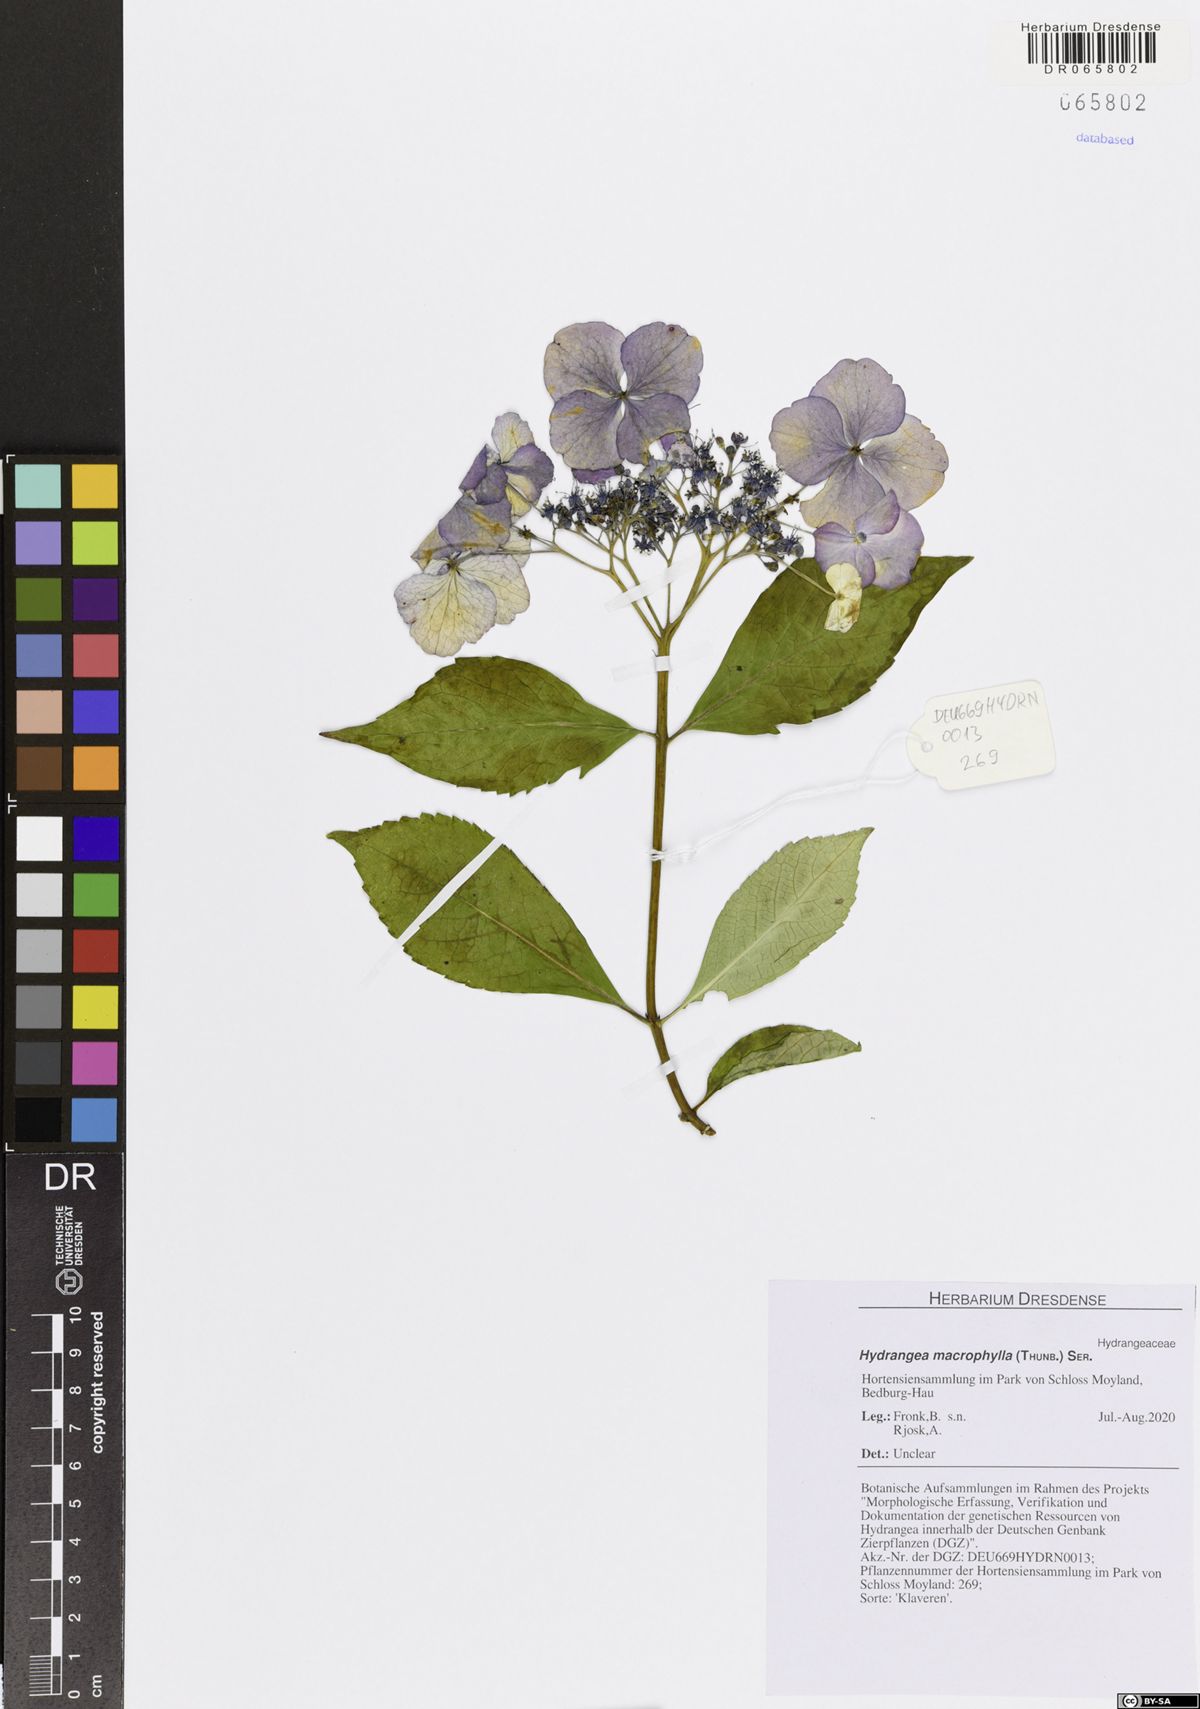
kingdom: Plantae
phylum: Tracheophyta
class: Magnoliopsida
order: Cornales
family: Hydrangeaceae
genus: Hydrangea
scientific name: Hydrangea macrophylla
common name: Hydrangea
